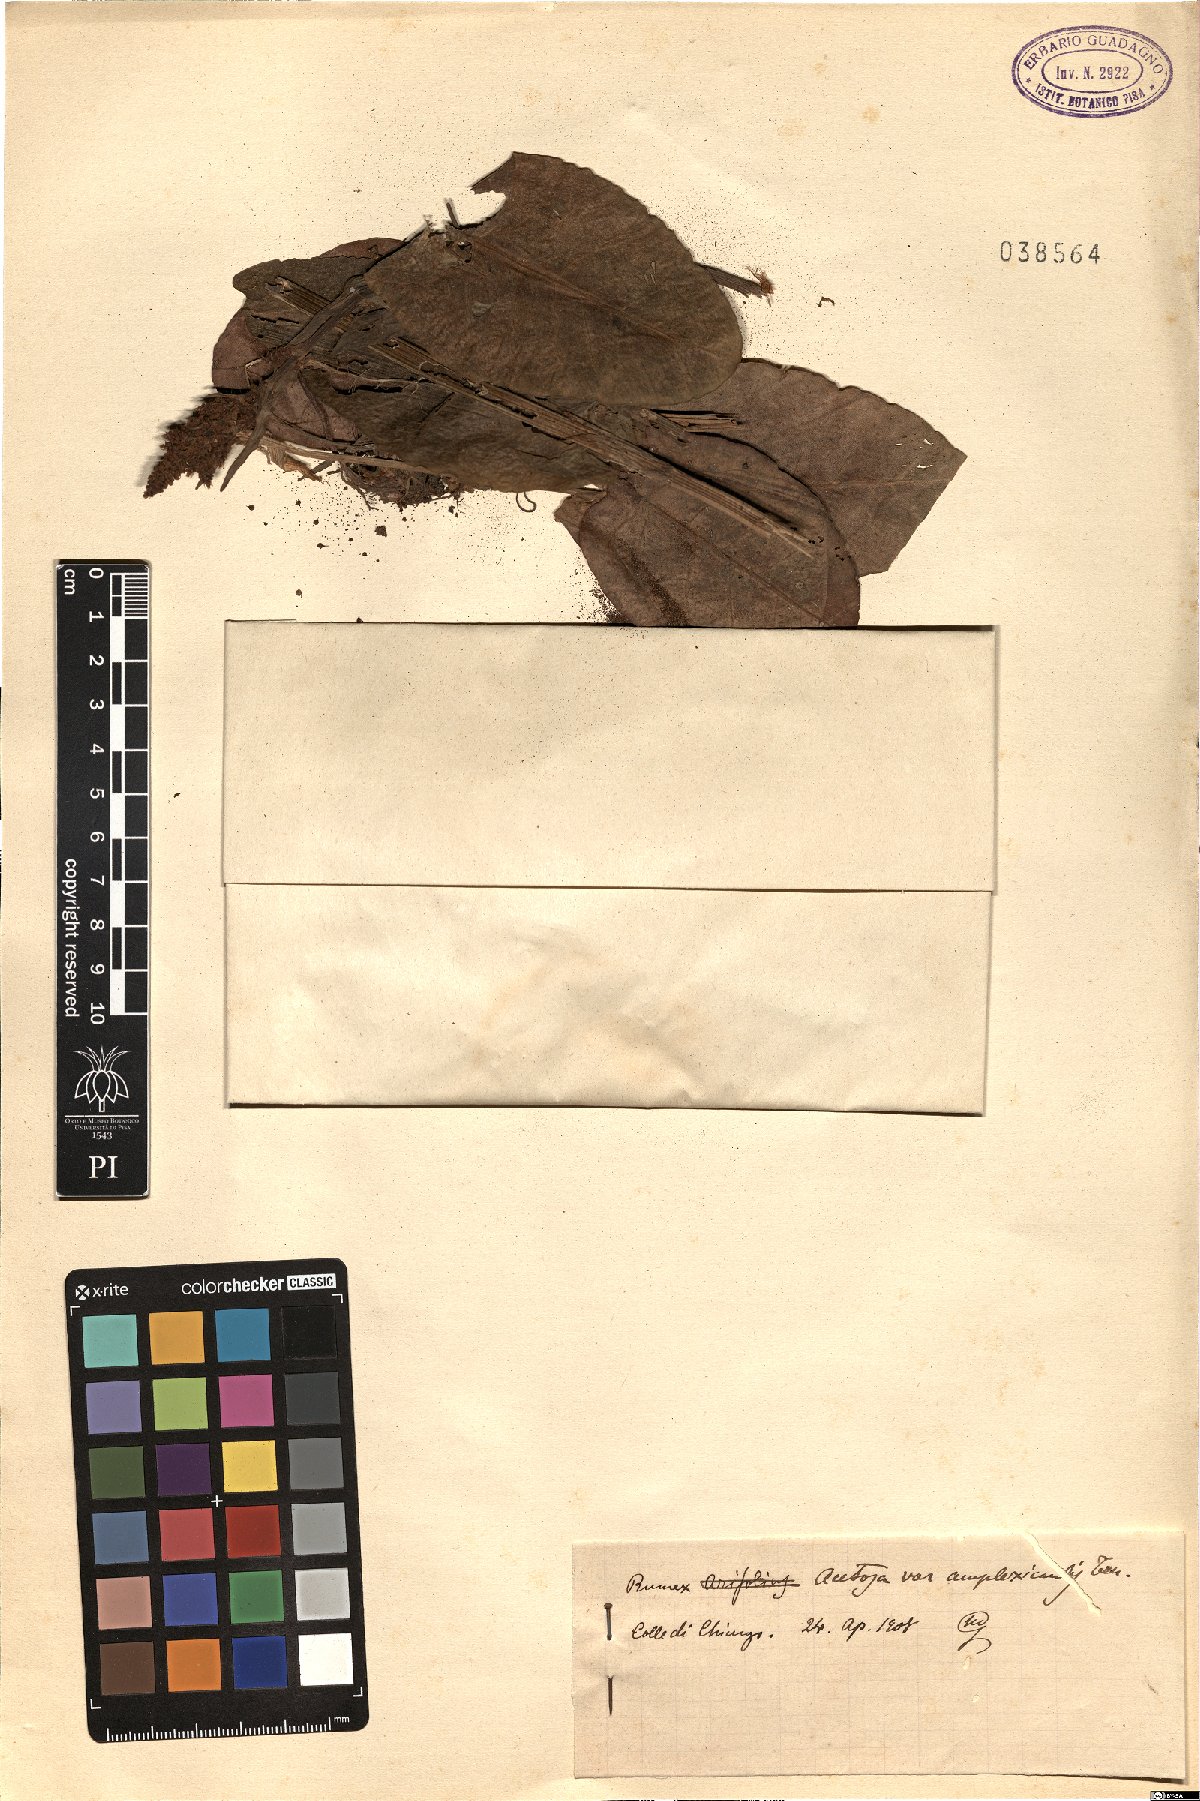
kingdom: Plantae
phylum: Tracheophyta
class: Magnoliopsida
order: Caryophyllales
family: Polygonaceae
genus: Rumex
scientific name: Rumex arifolius
